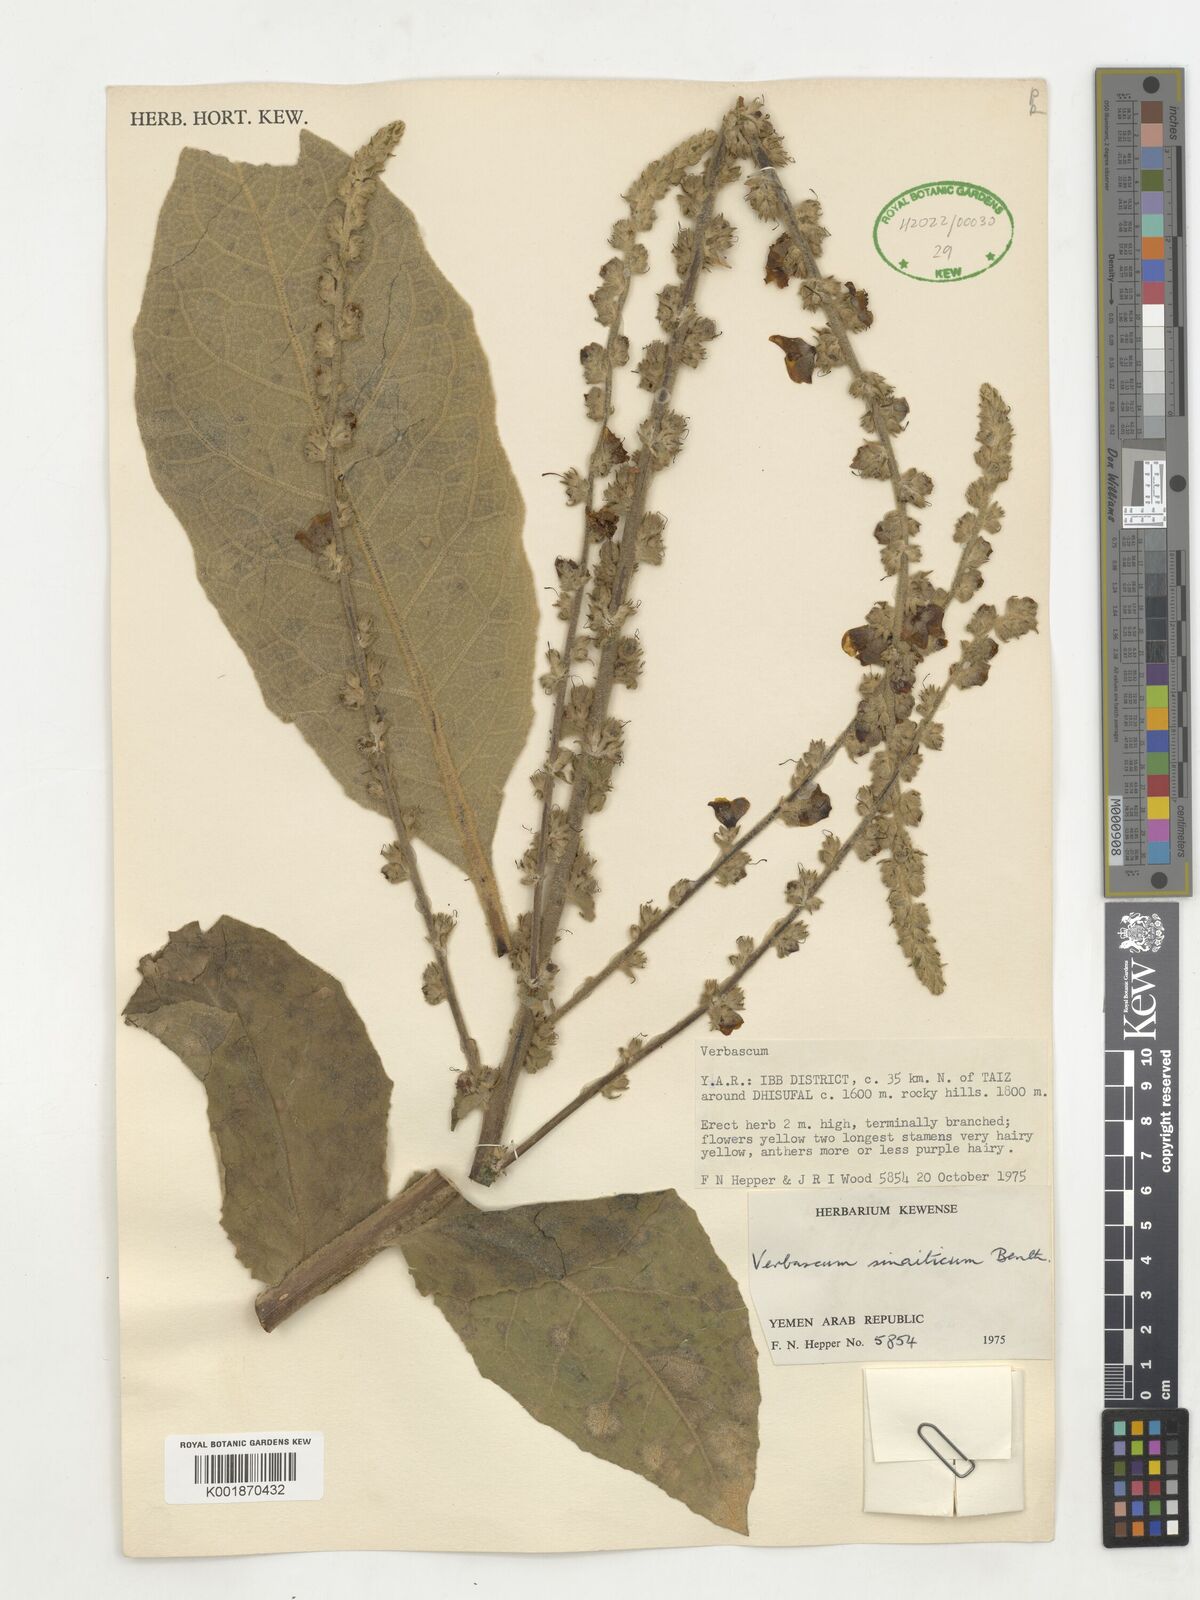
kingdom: Plantae
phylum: Tracheophyta
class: Magnoliopsida
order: Lamiales
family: Scrophulariaceae
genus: Verbascum
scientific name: Verbascum sinaiticum
